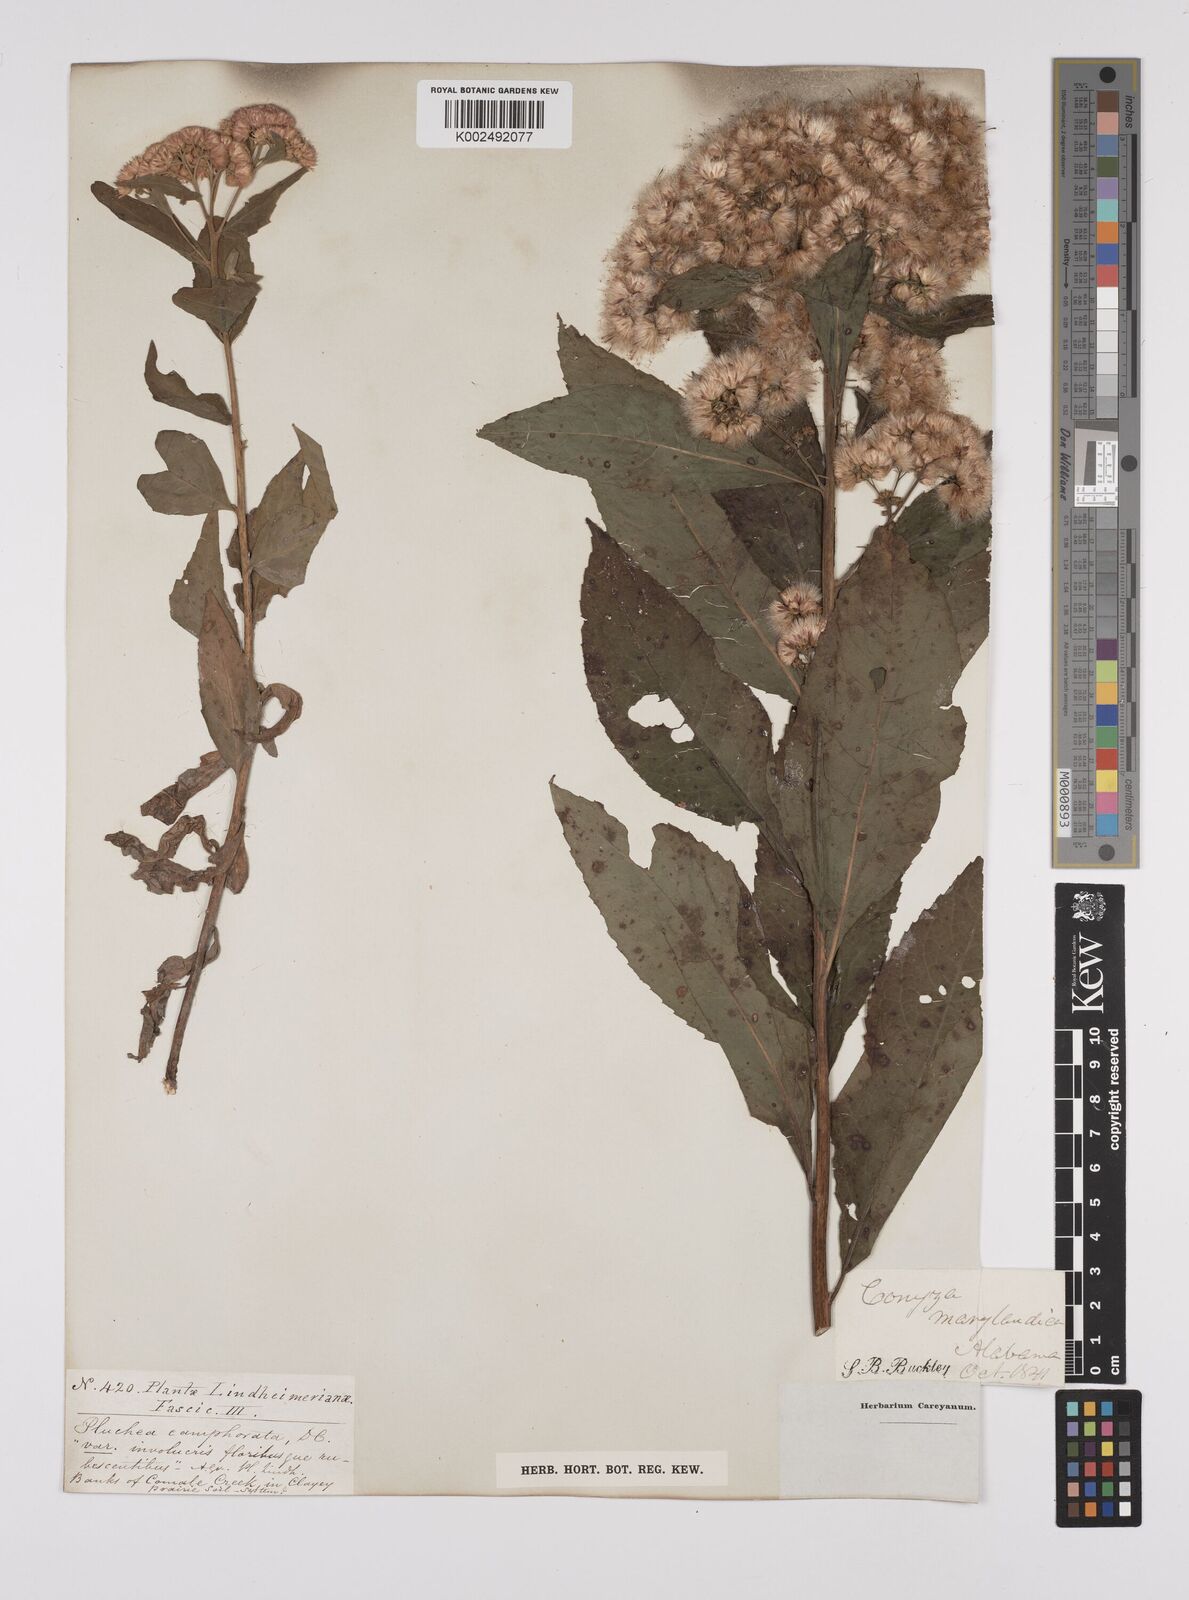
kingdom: Plantae
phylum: Tracheophyta
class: Magnoliopsida
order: Asterales
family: Asteraceae
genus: Pluchea
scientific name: Pluchea camphorata
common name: Camphor pluchea
